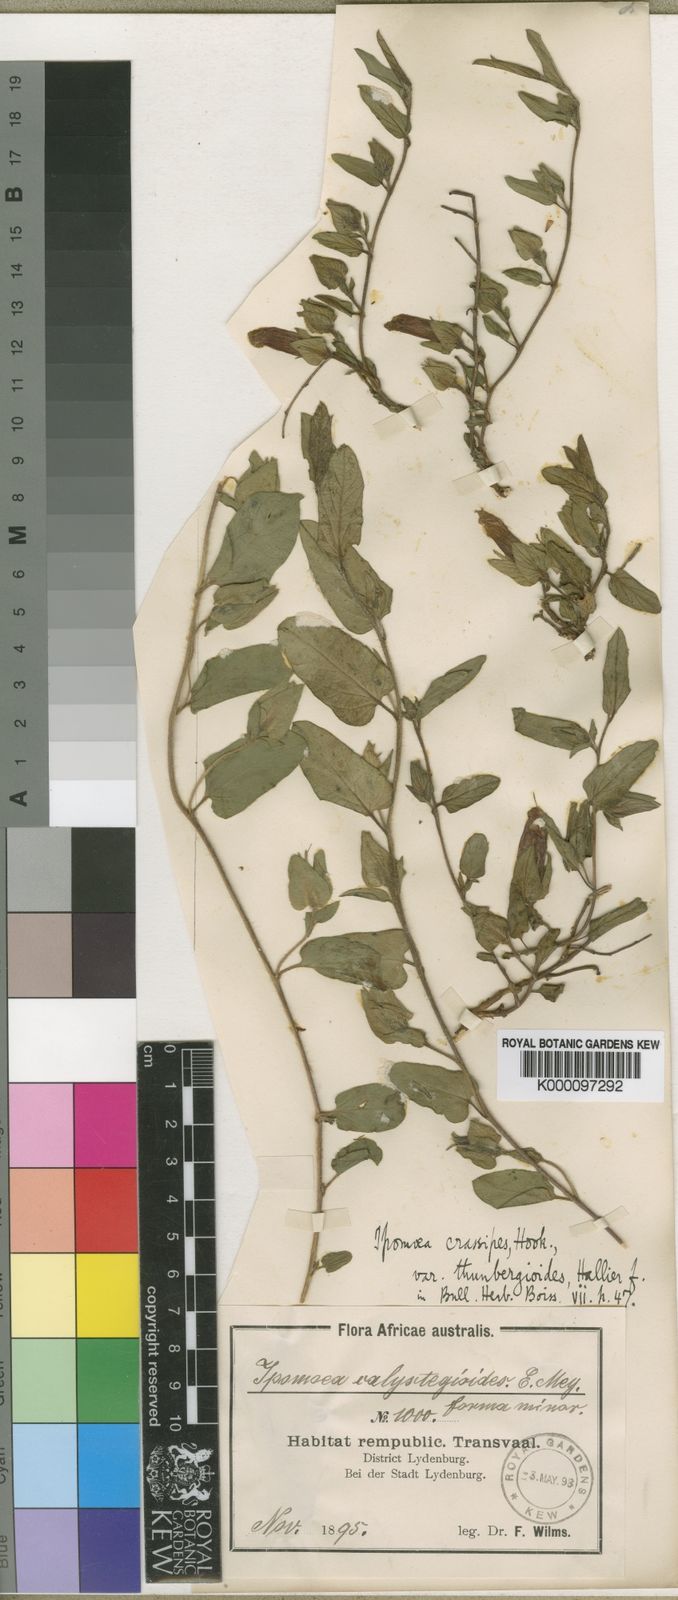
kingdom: Plantae
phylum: Tracheophyta
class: Magnoliopsida
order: Solanales
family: Convolvulaceae
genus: Ipomoea
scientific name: Ipomoea crassipes
